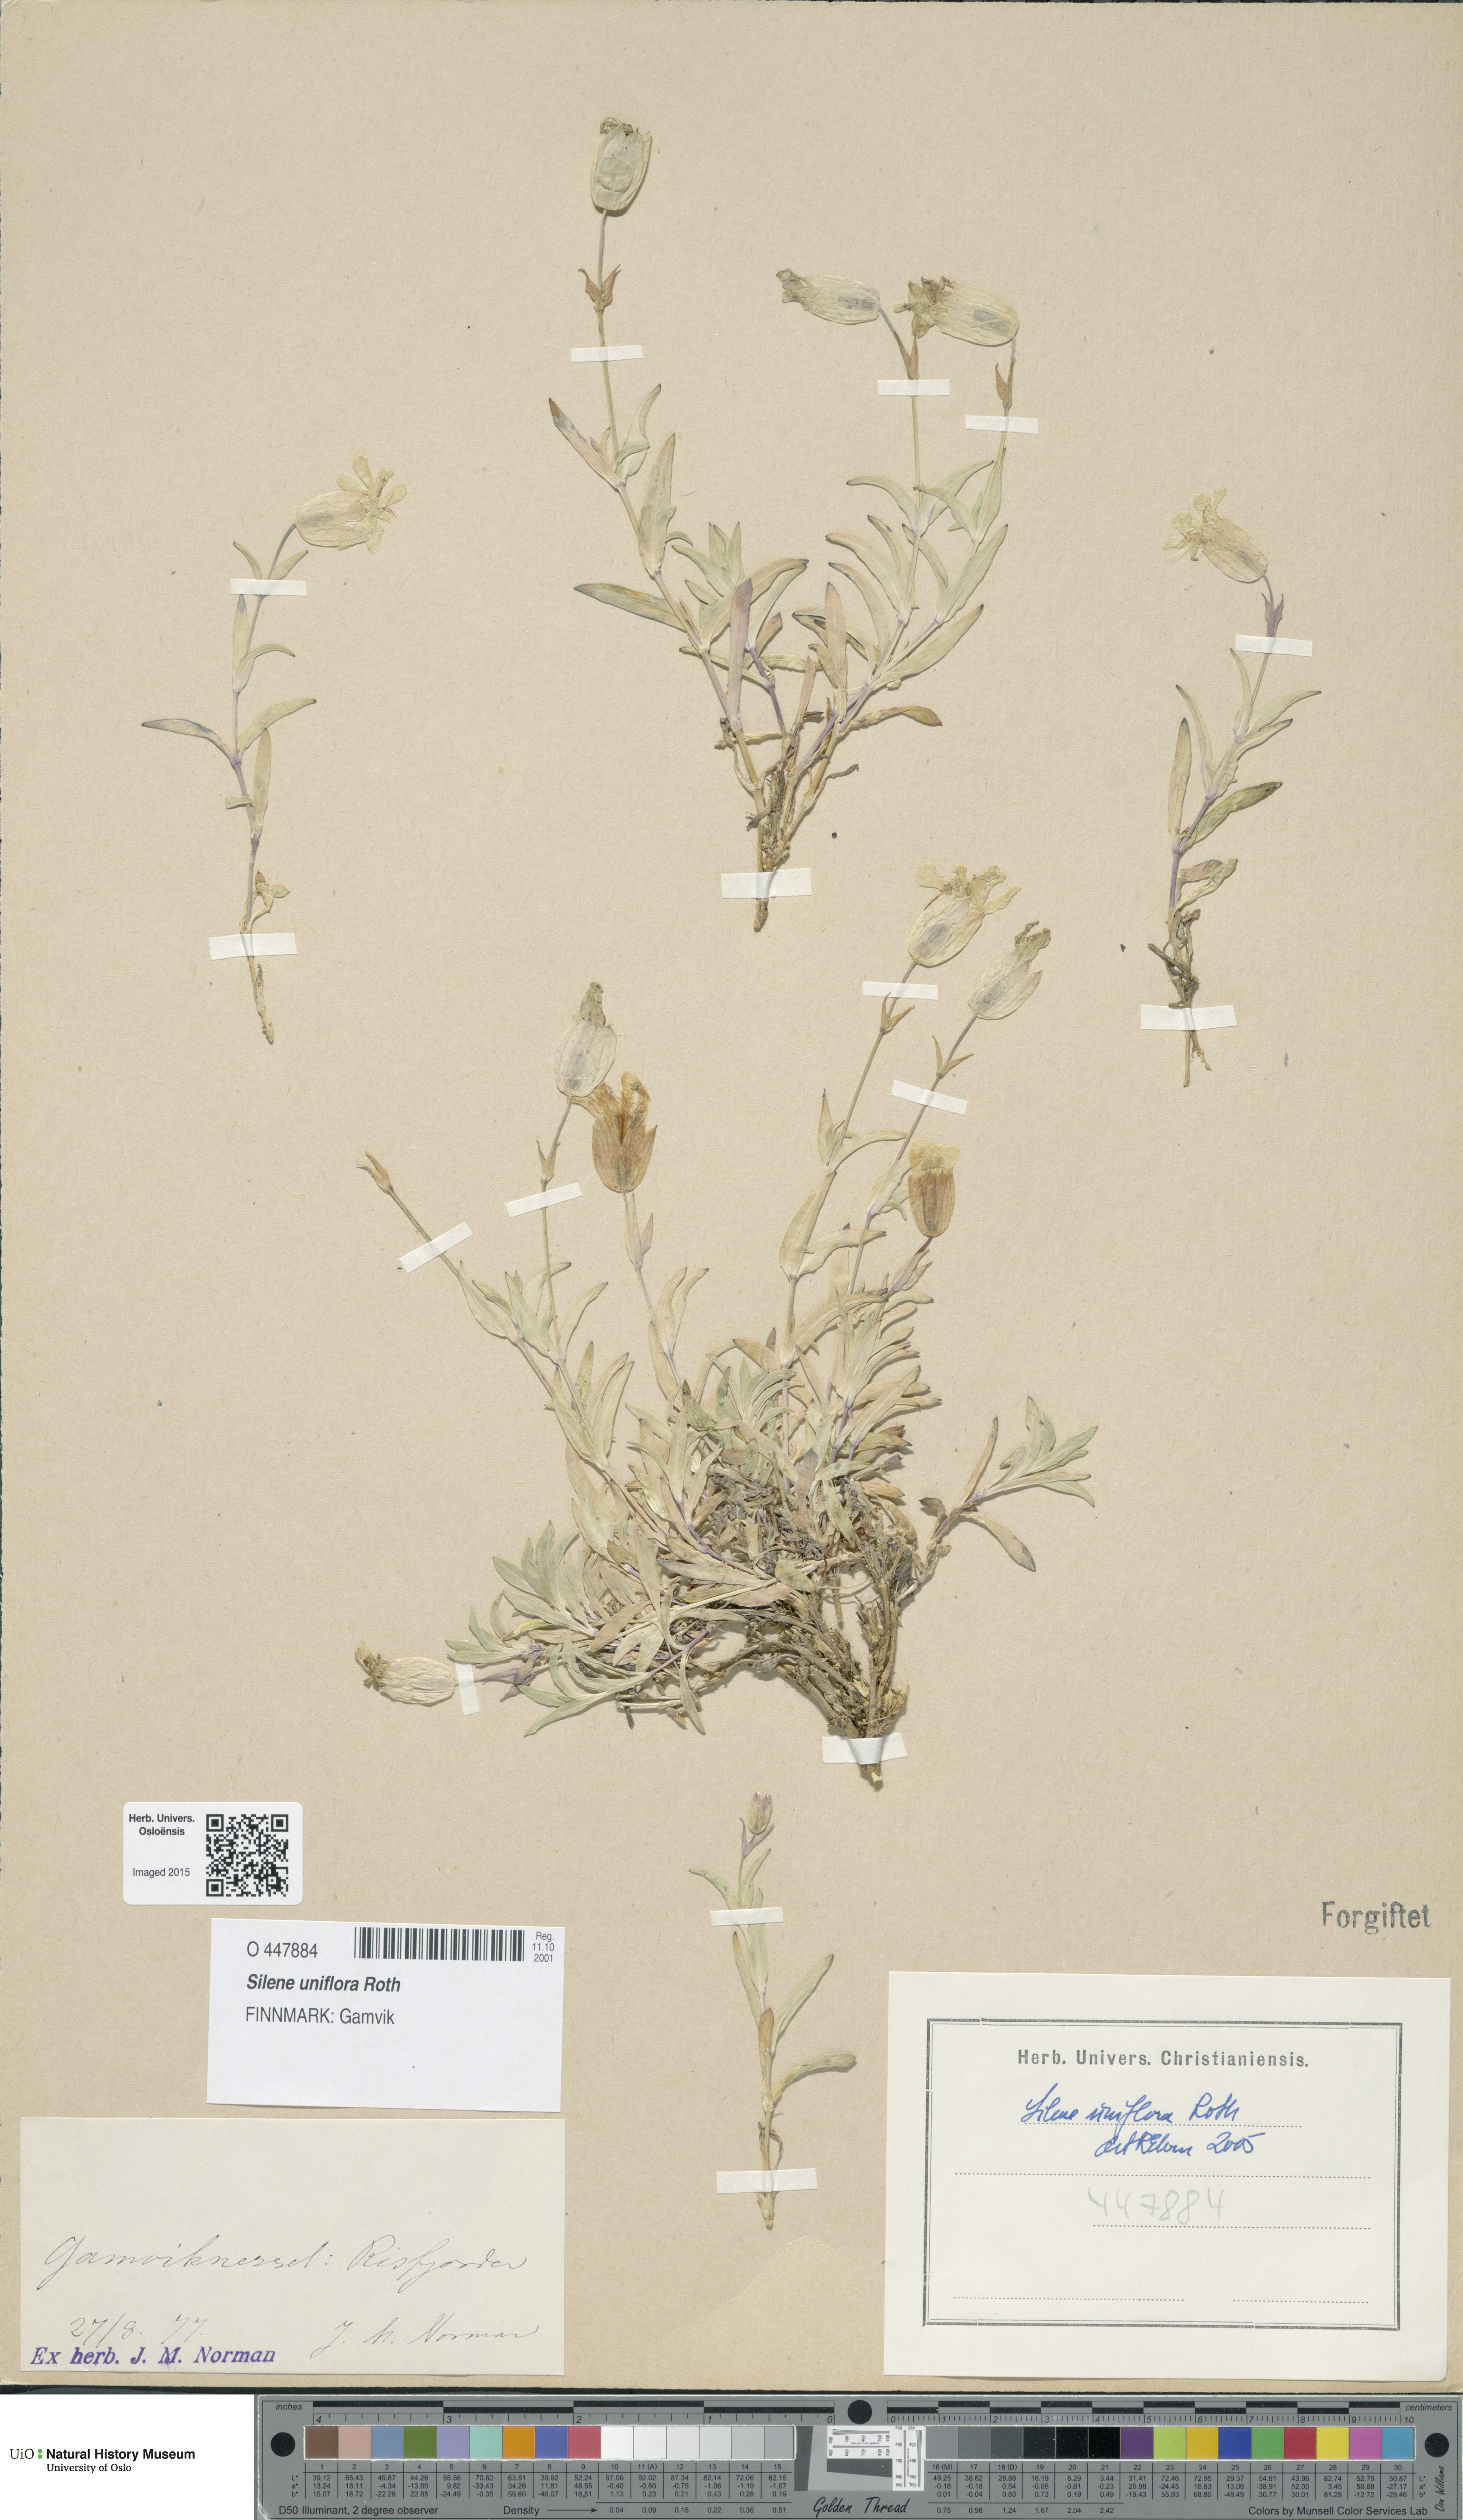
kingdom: Plantae
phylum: Tracheophyta
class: Magnoliopsida
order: Caryophyllales
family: Caryophyllaceae
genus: Silene
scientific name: Silene uniflora
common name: Sea campion
